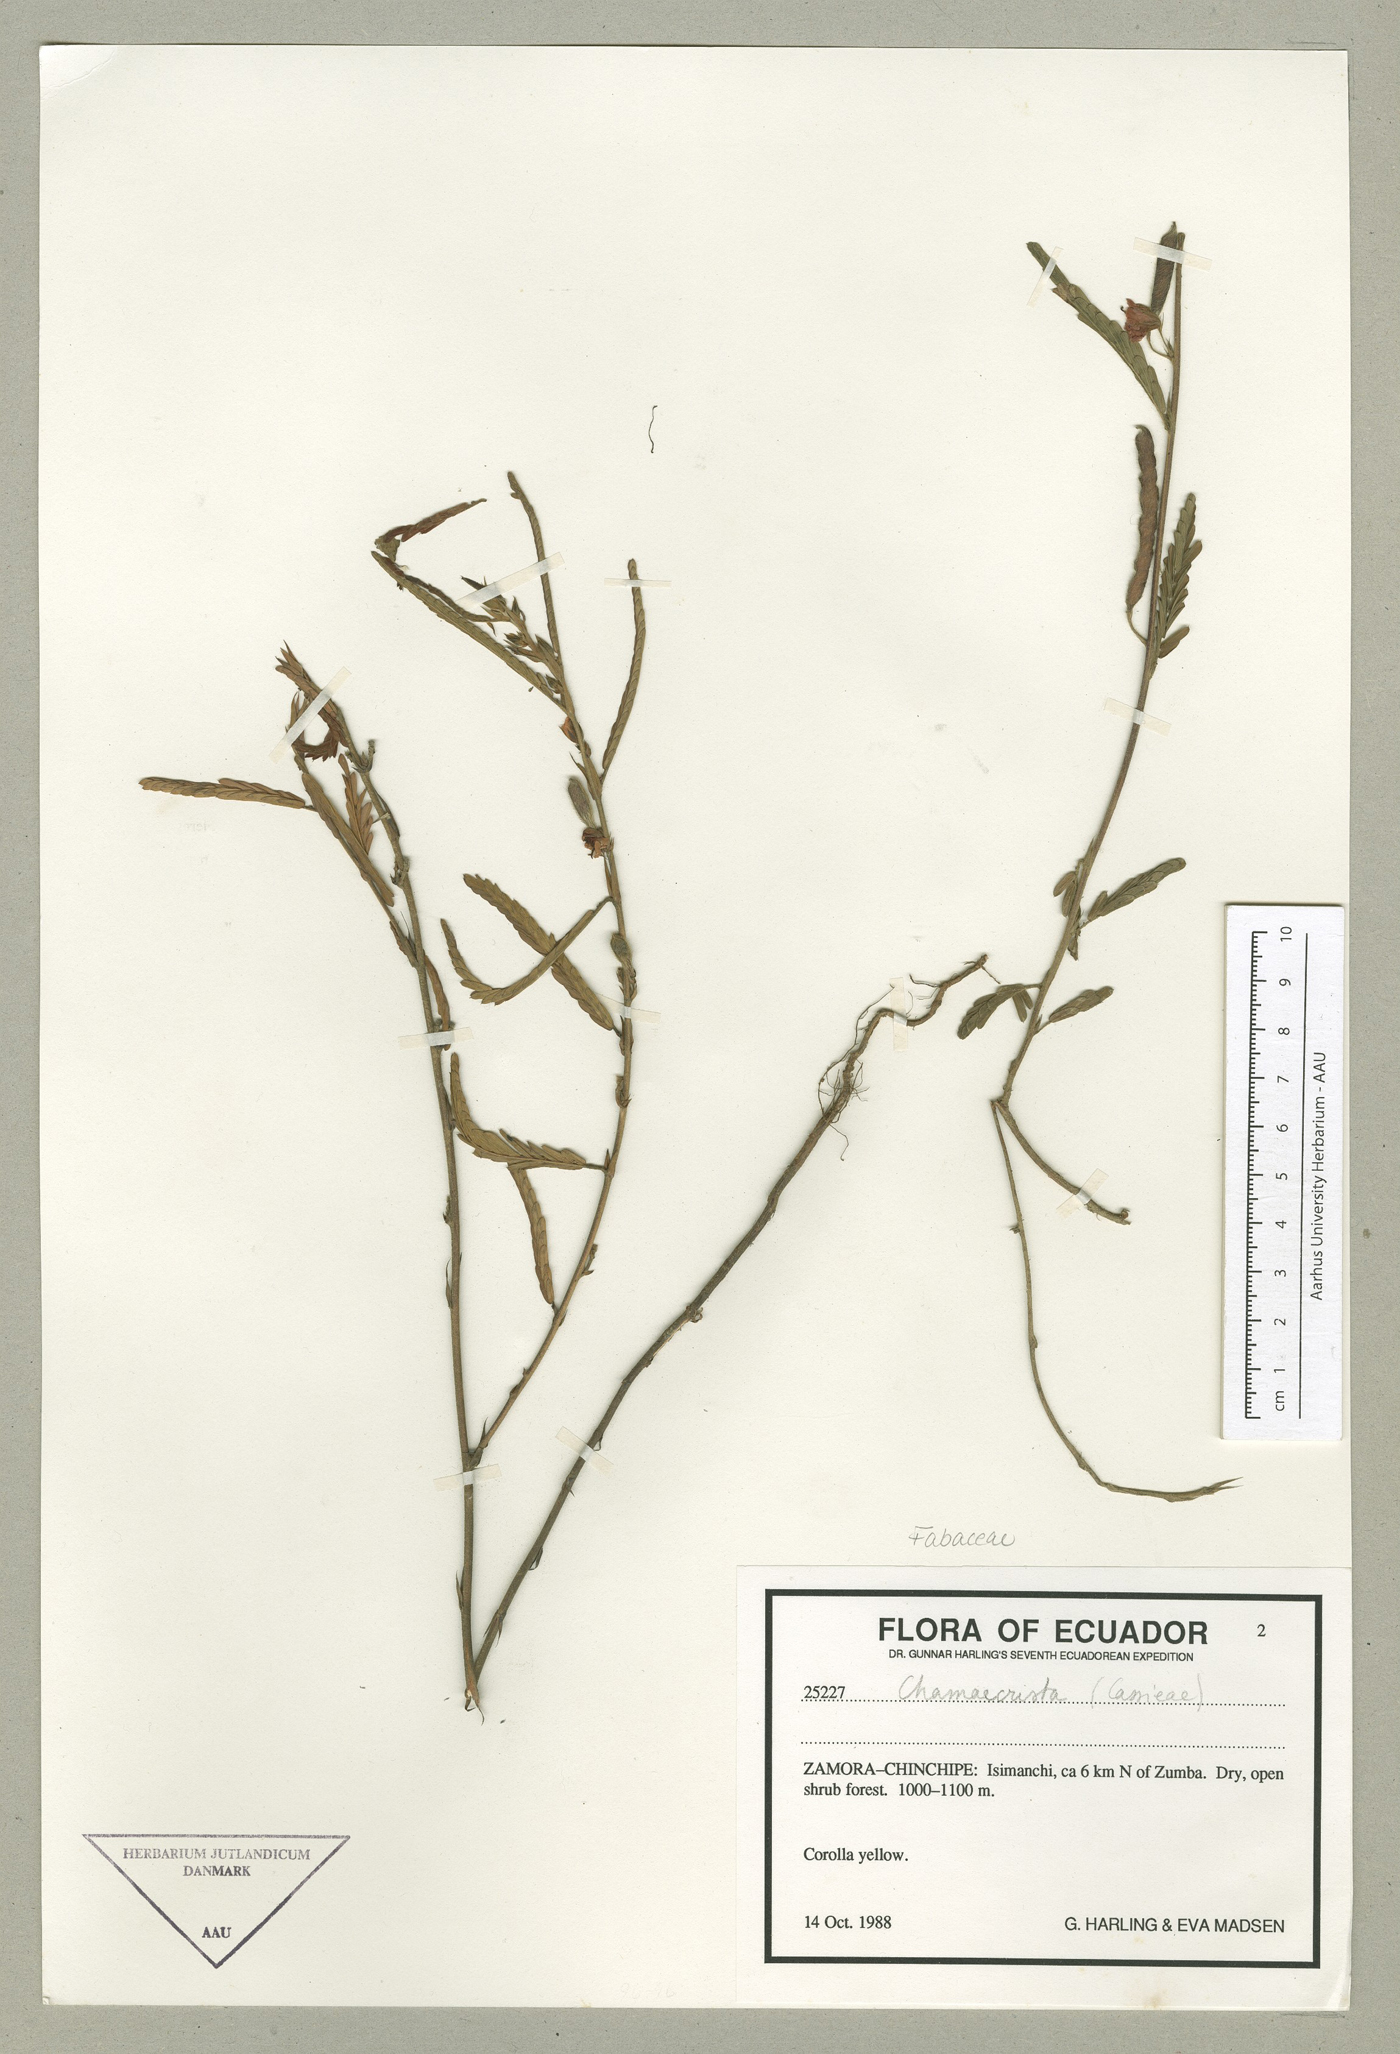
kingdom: Plantae
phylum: Tracheophyta
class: Magnoliopsida
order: Fabales
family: Fabaceae
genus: Chamaecrista
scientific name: Chamaecrista nictitans
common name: Sensitive cassia
